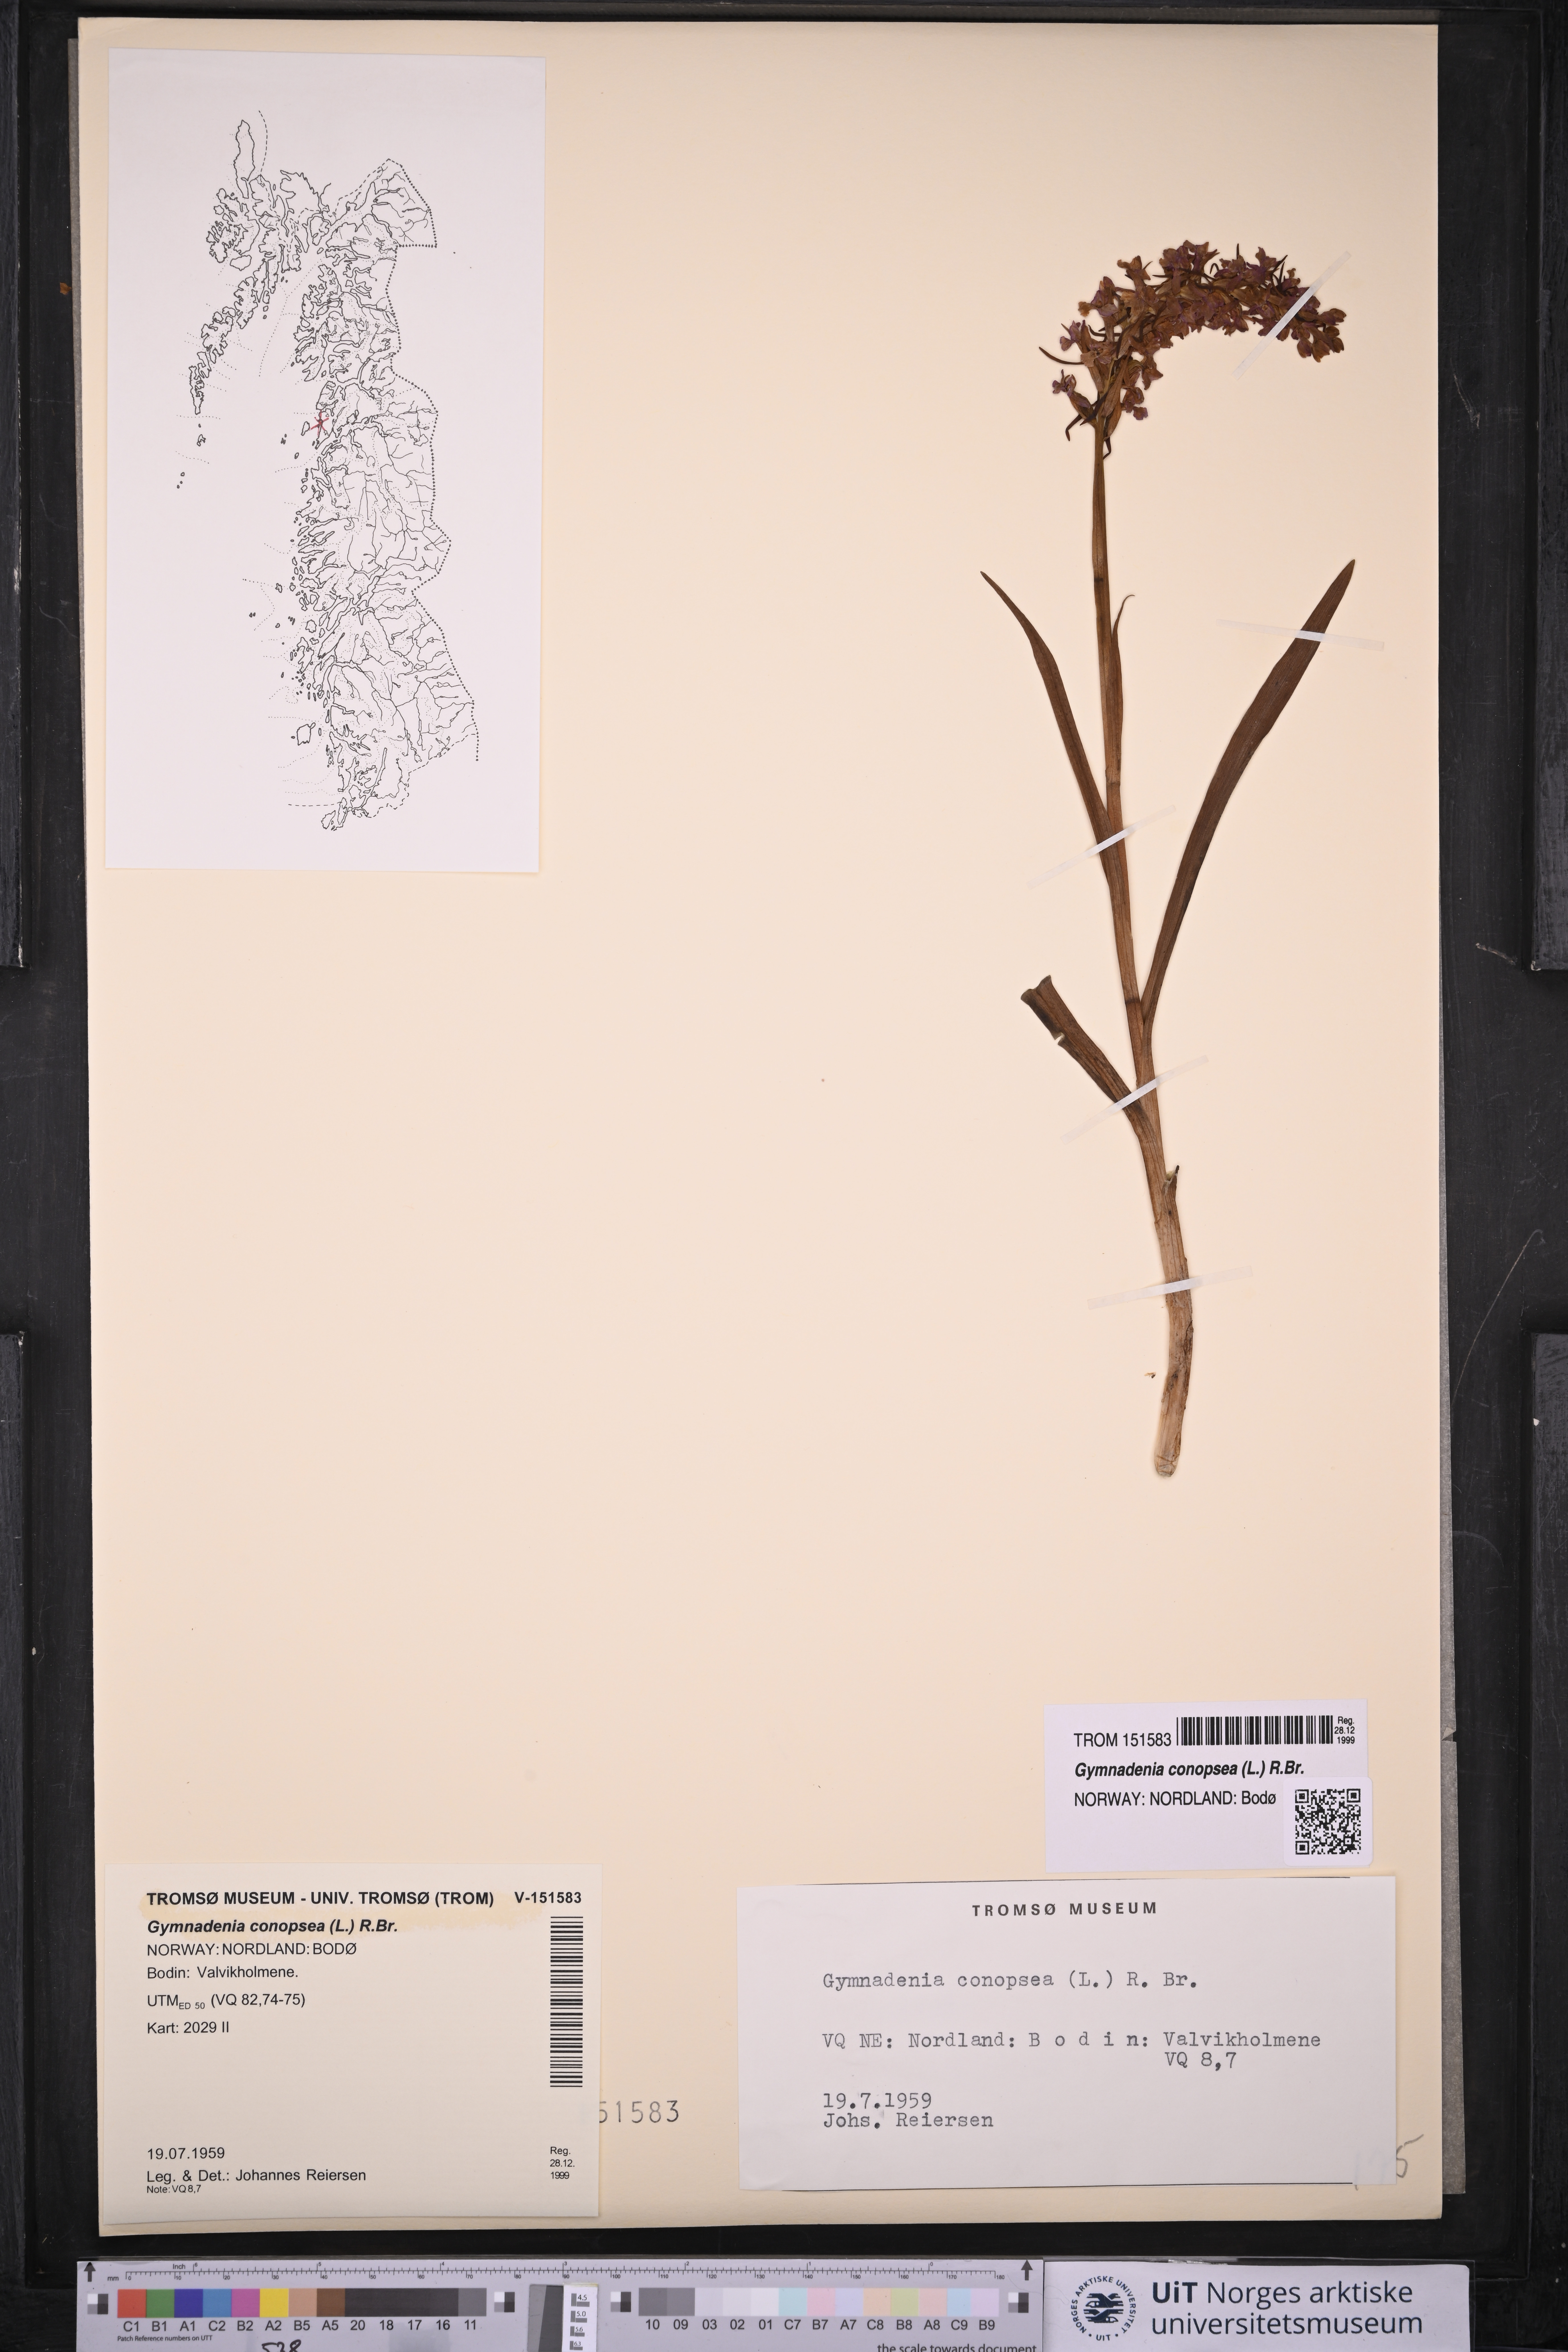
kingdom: Plantae
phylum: Tracheophyta
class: Liliopsida
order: Asparagales
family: Orchidaceae
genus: Gymnadenia
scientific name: Gymnadenia conopsea
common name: Fragrant orchid
